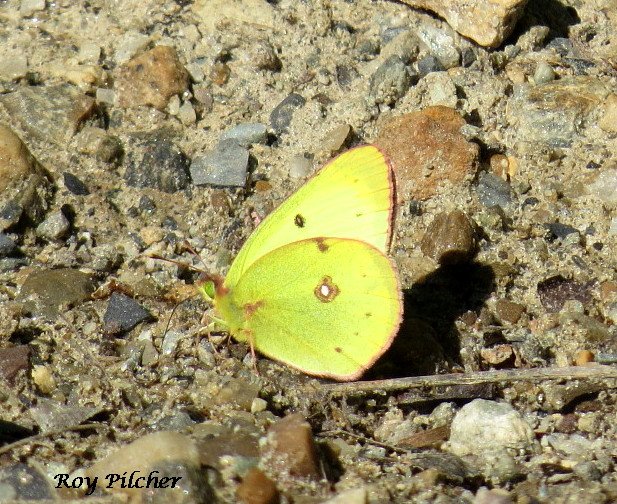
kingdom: Animalia
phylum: Arthropoda
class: Insecta
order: Lepidoptera
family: Pieridae
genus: Colias
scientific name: Colias philodice
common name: Clouded Sulphur
